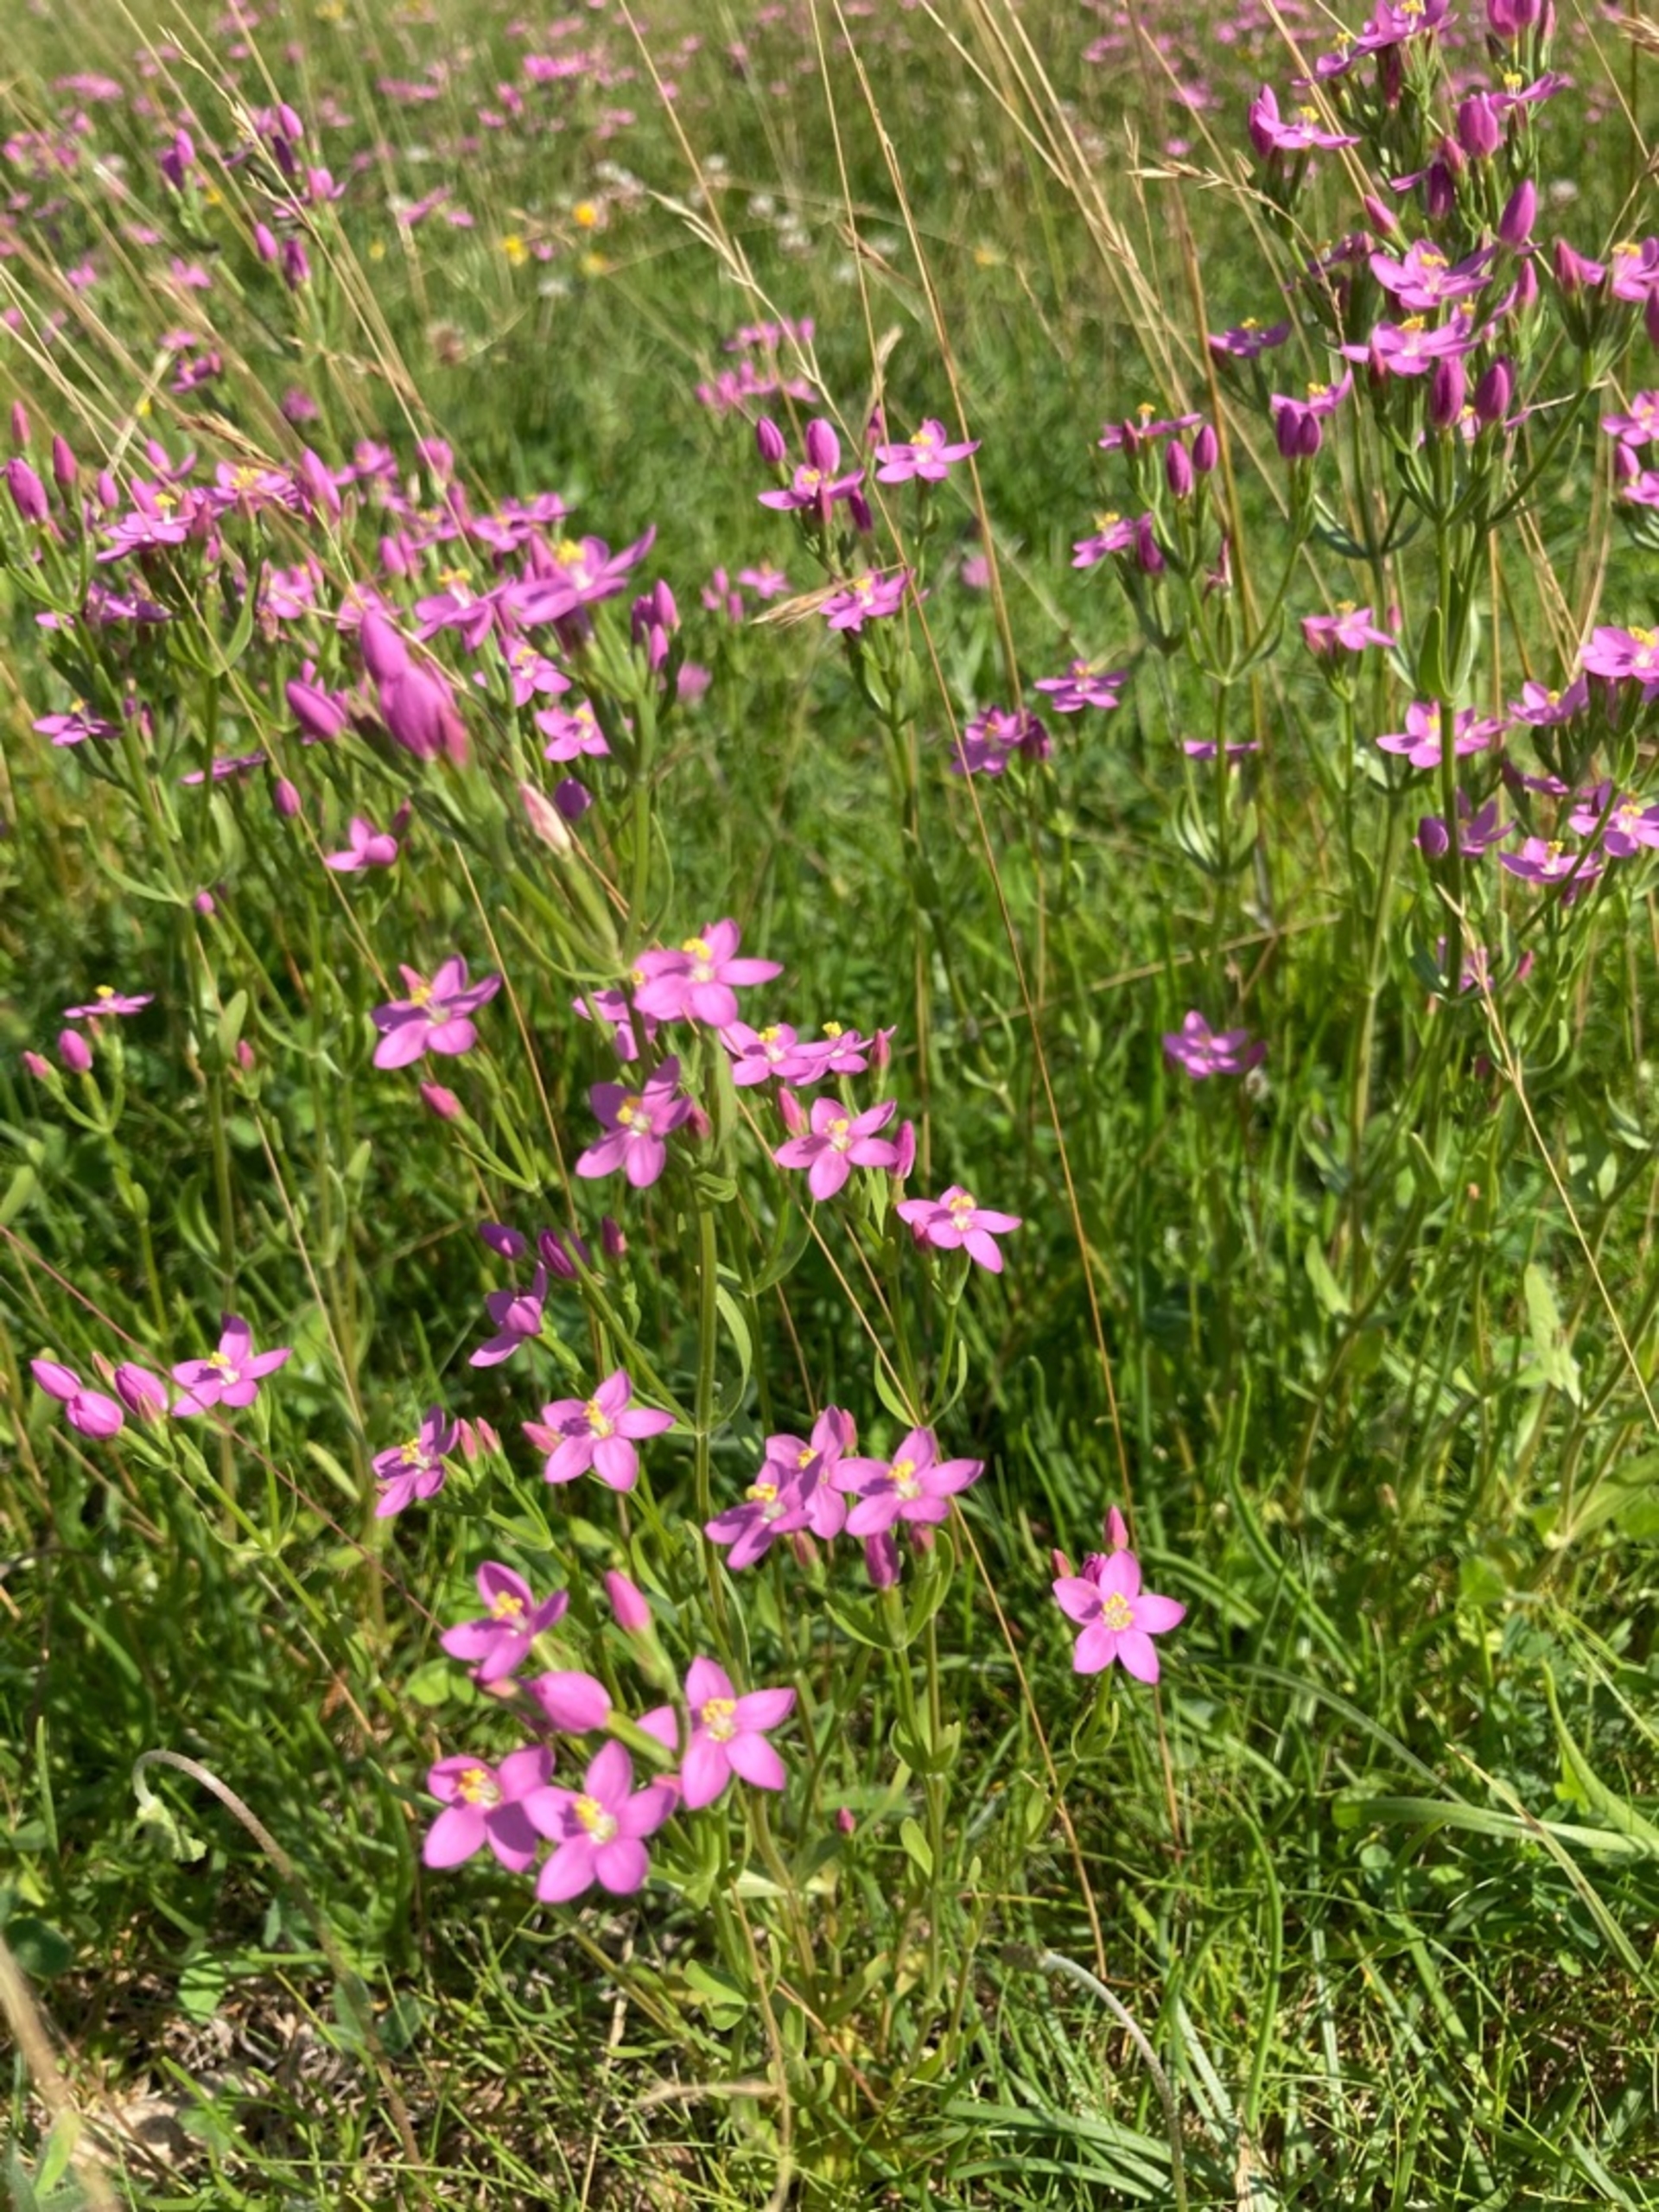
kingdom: Plantae
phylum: Tracheophyta
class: Magnoliopsida
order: Gentianales
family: Gentianaceae
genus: Centaurium
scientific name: Centaurium littorale
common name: Strand-tusindgylden
